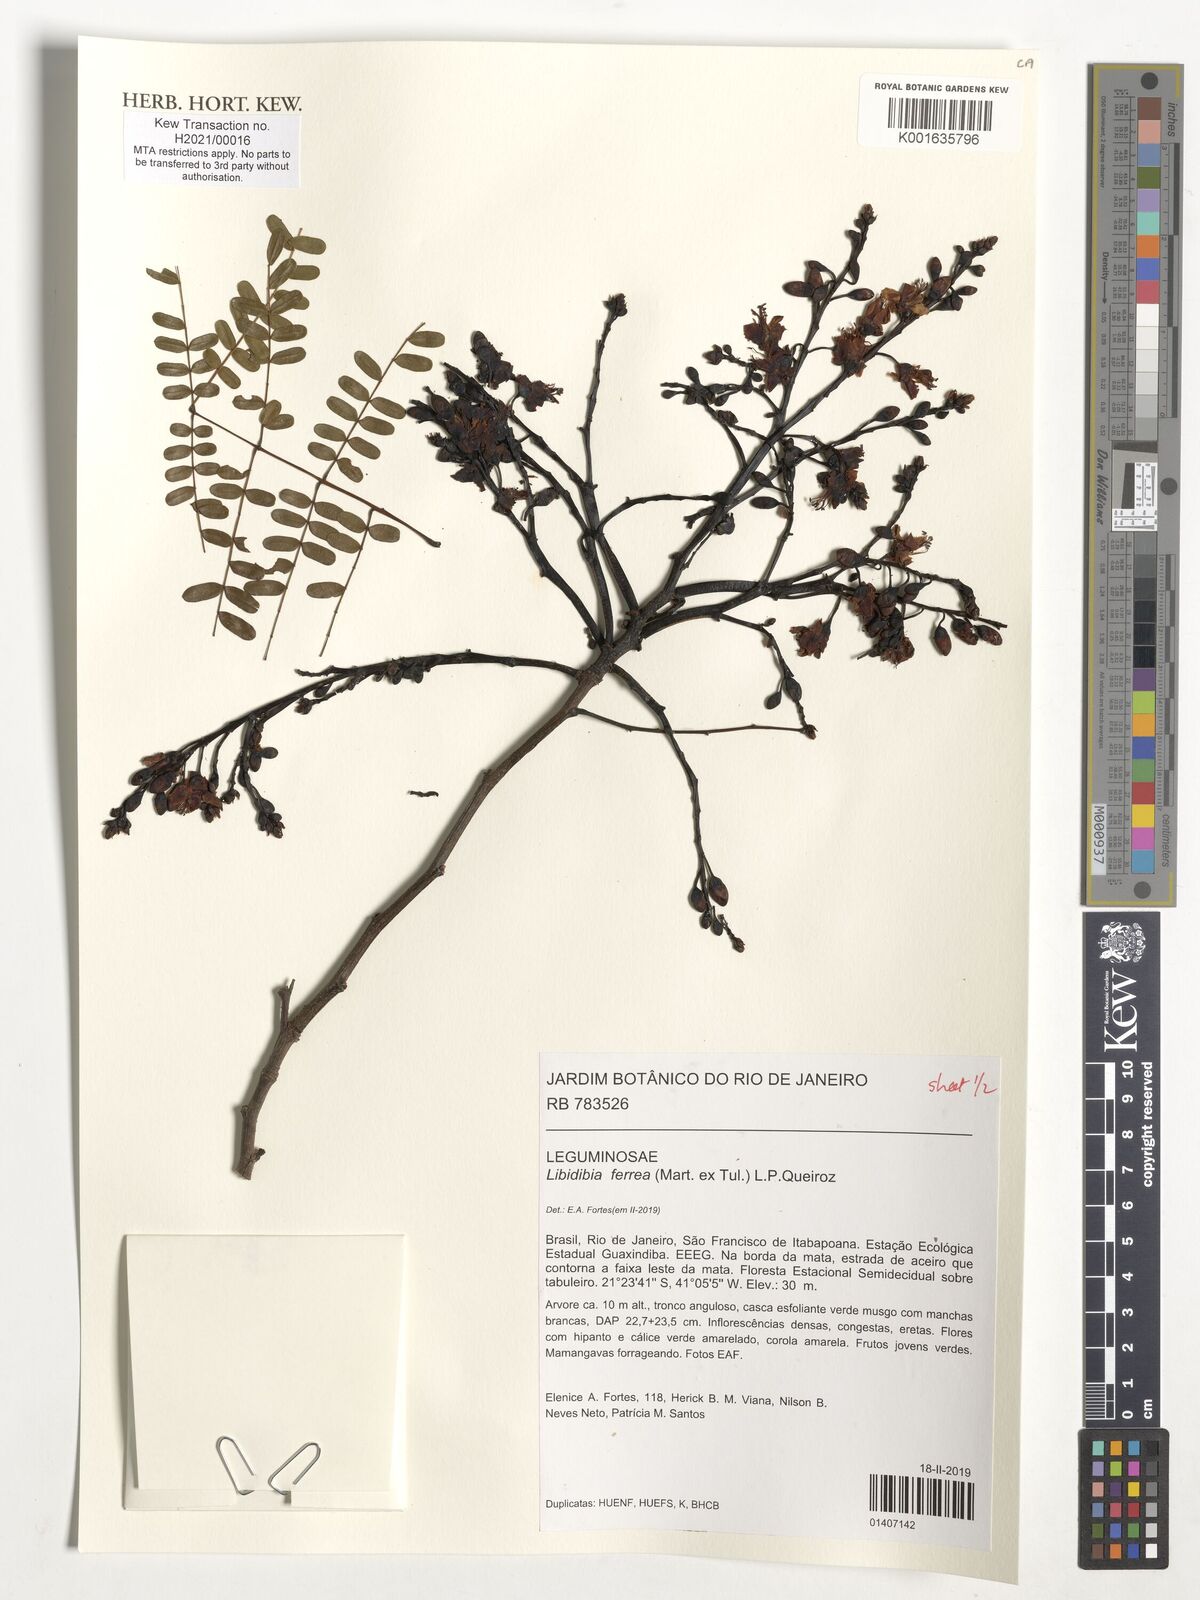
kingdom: Plantae
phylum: Tracheophyta
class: Magnoliopsida
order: Fabales
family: Fabaceae
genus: Libidibia
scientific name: Libidibia ferrea
